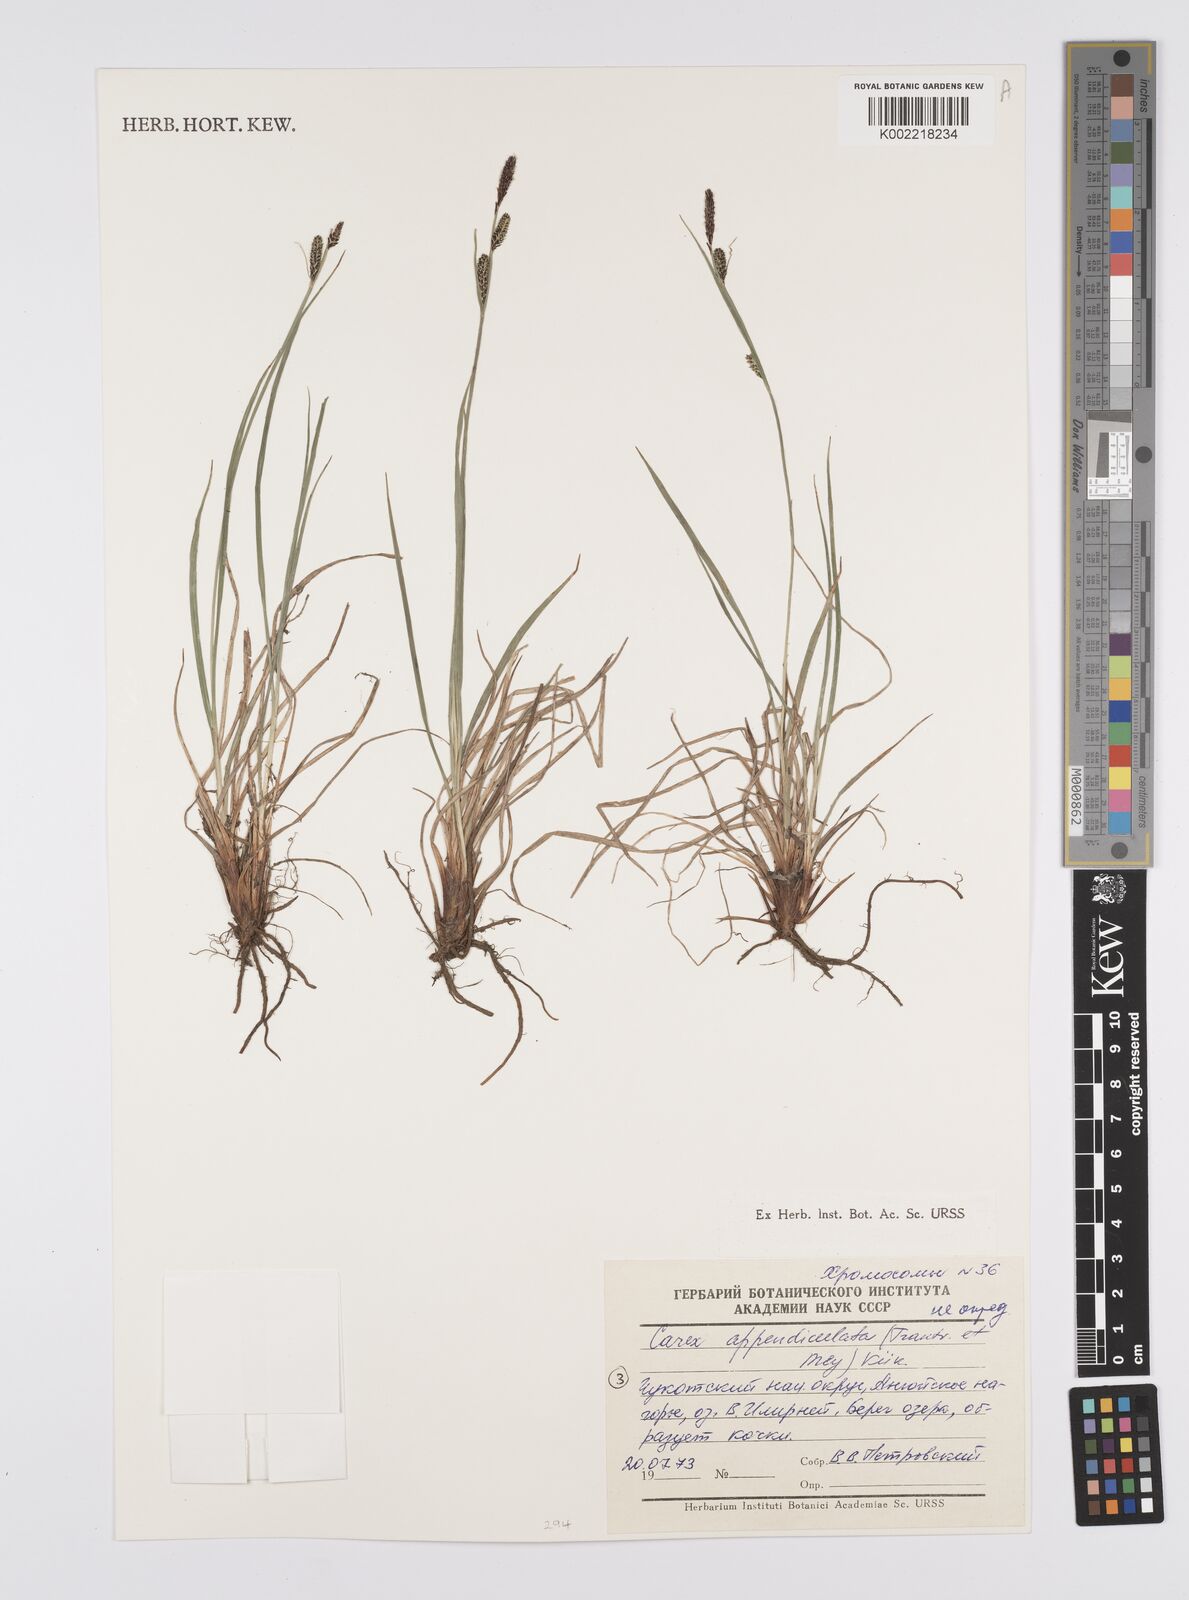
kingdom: Plantae
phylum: Tracheophyta
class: Liliopsida
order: Poales
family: Cyperaceae
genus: Carex
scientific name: Carex appendiculata
